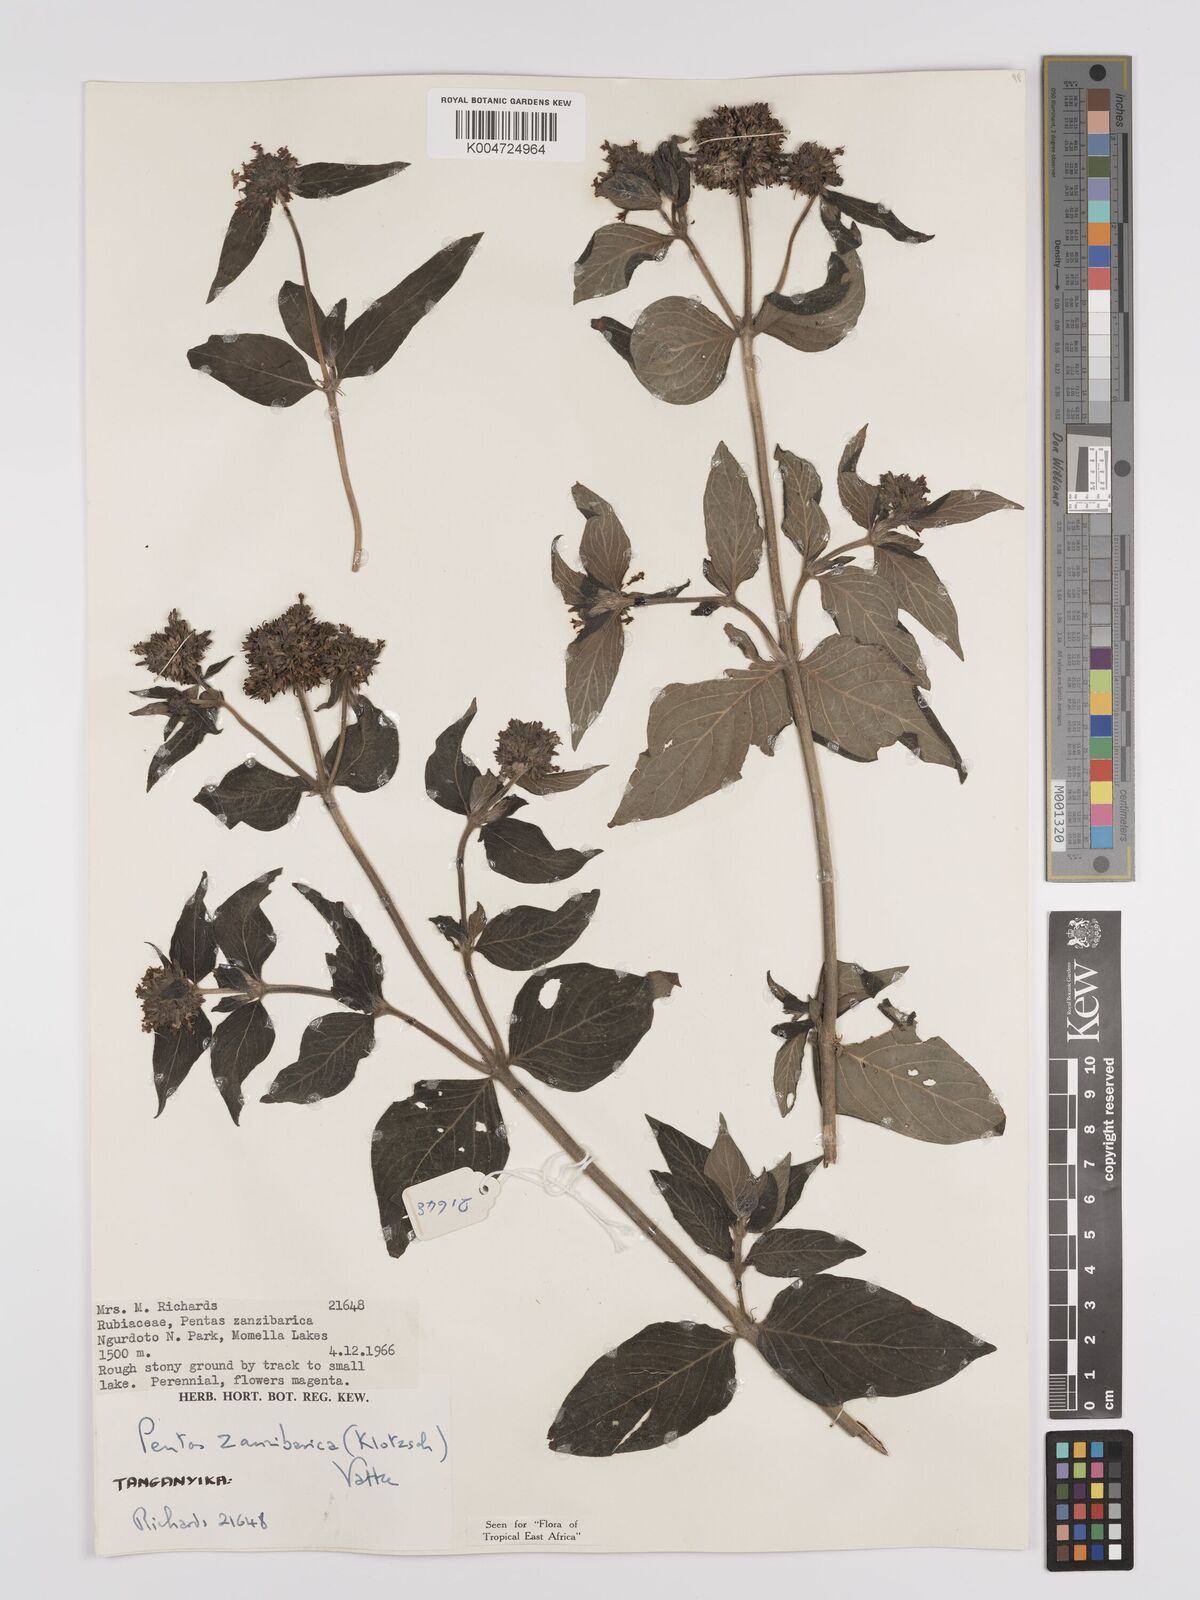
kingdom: Plantae
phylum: Tracheophyta
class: Magnoliopsida
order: Gentianales
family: Rubiaceae
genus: Pentas
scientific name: Pentas zanzibarica
